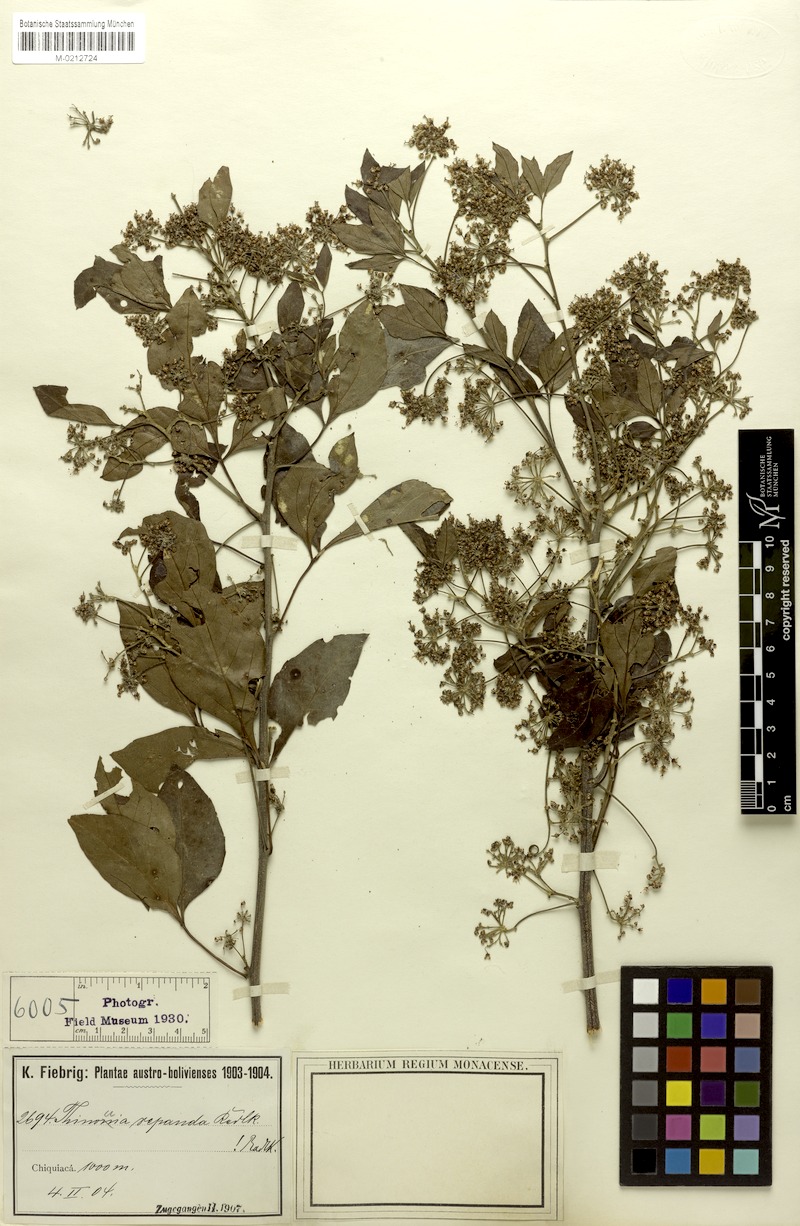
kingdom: Plantae
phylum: Tracheophyta
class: Magnoliopsida
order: Sapindales
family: Sapindaceae
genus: Thinouia
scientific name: Thinouia mucronata
